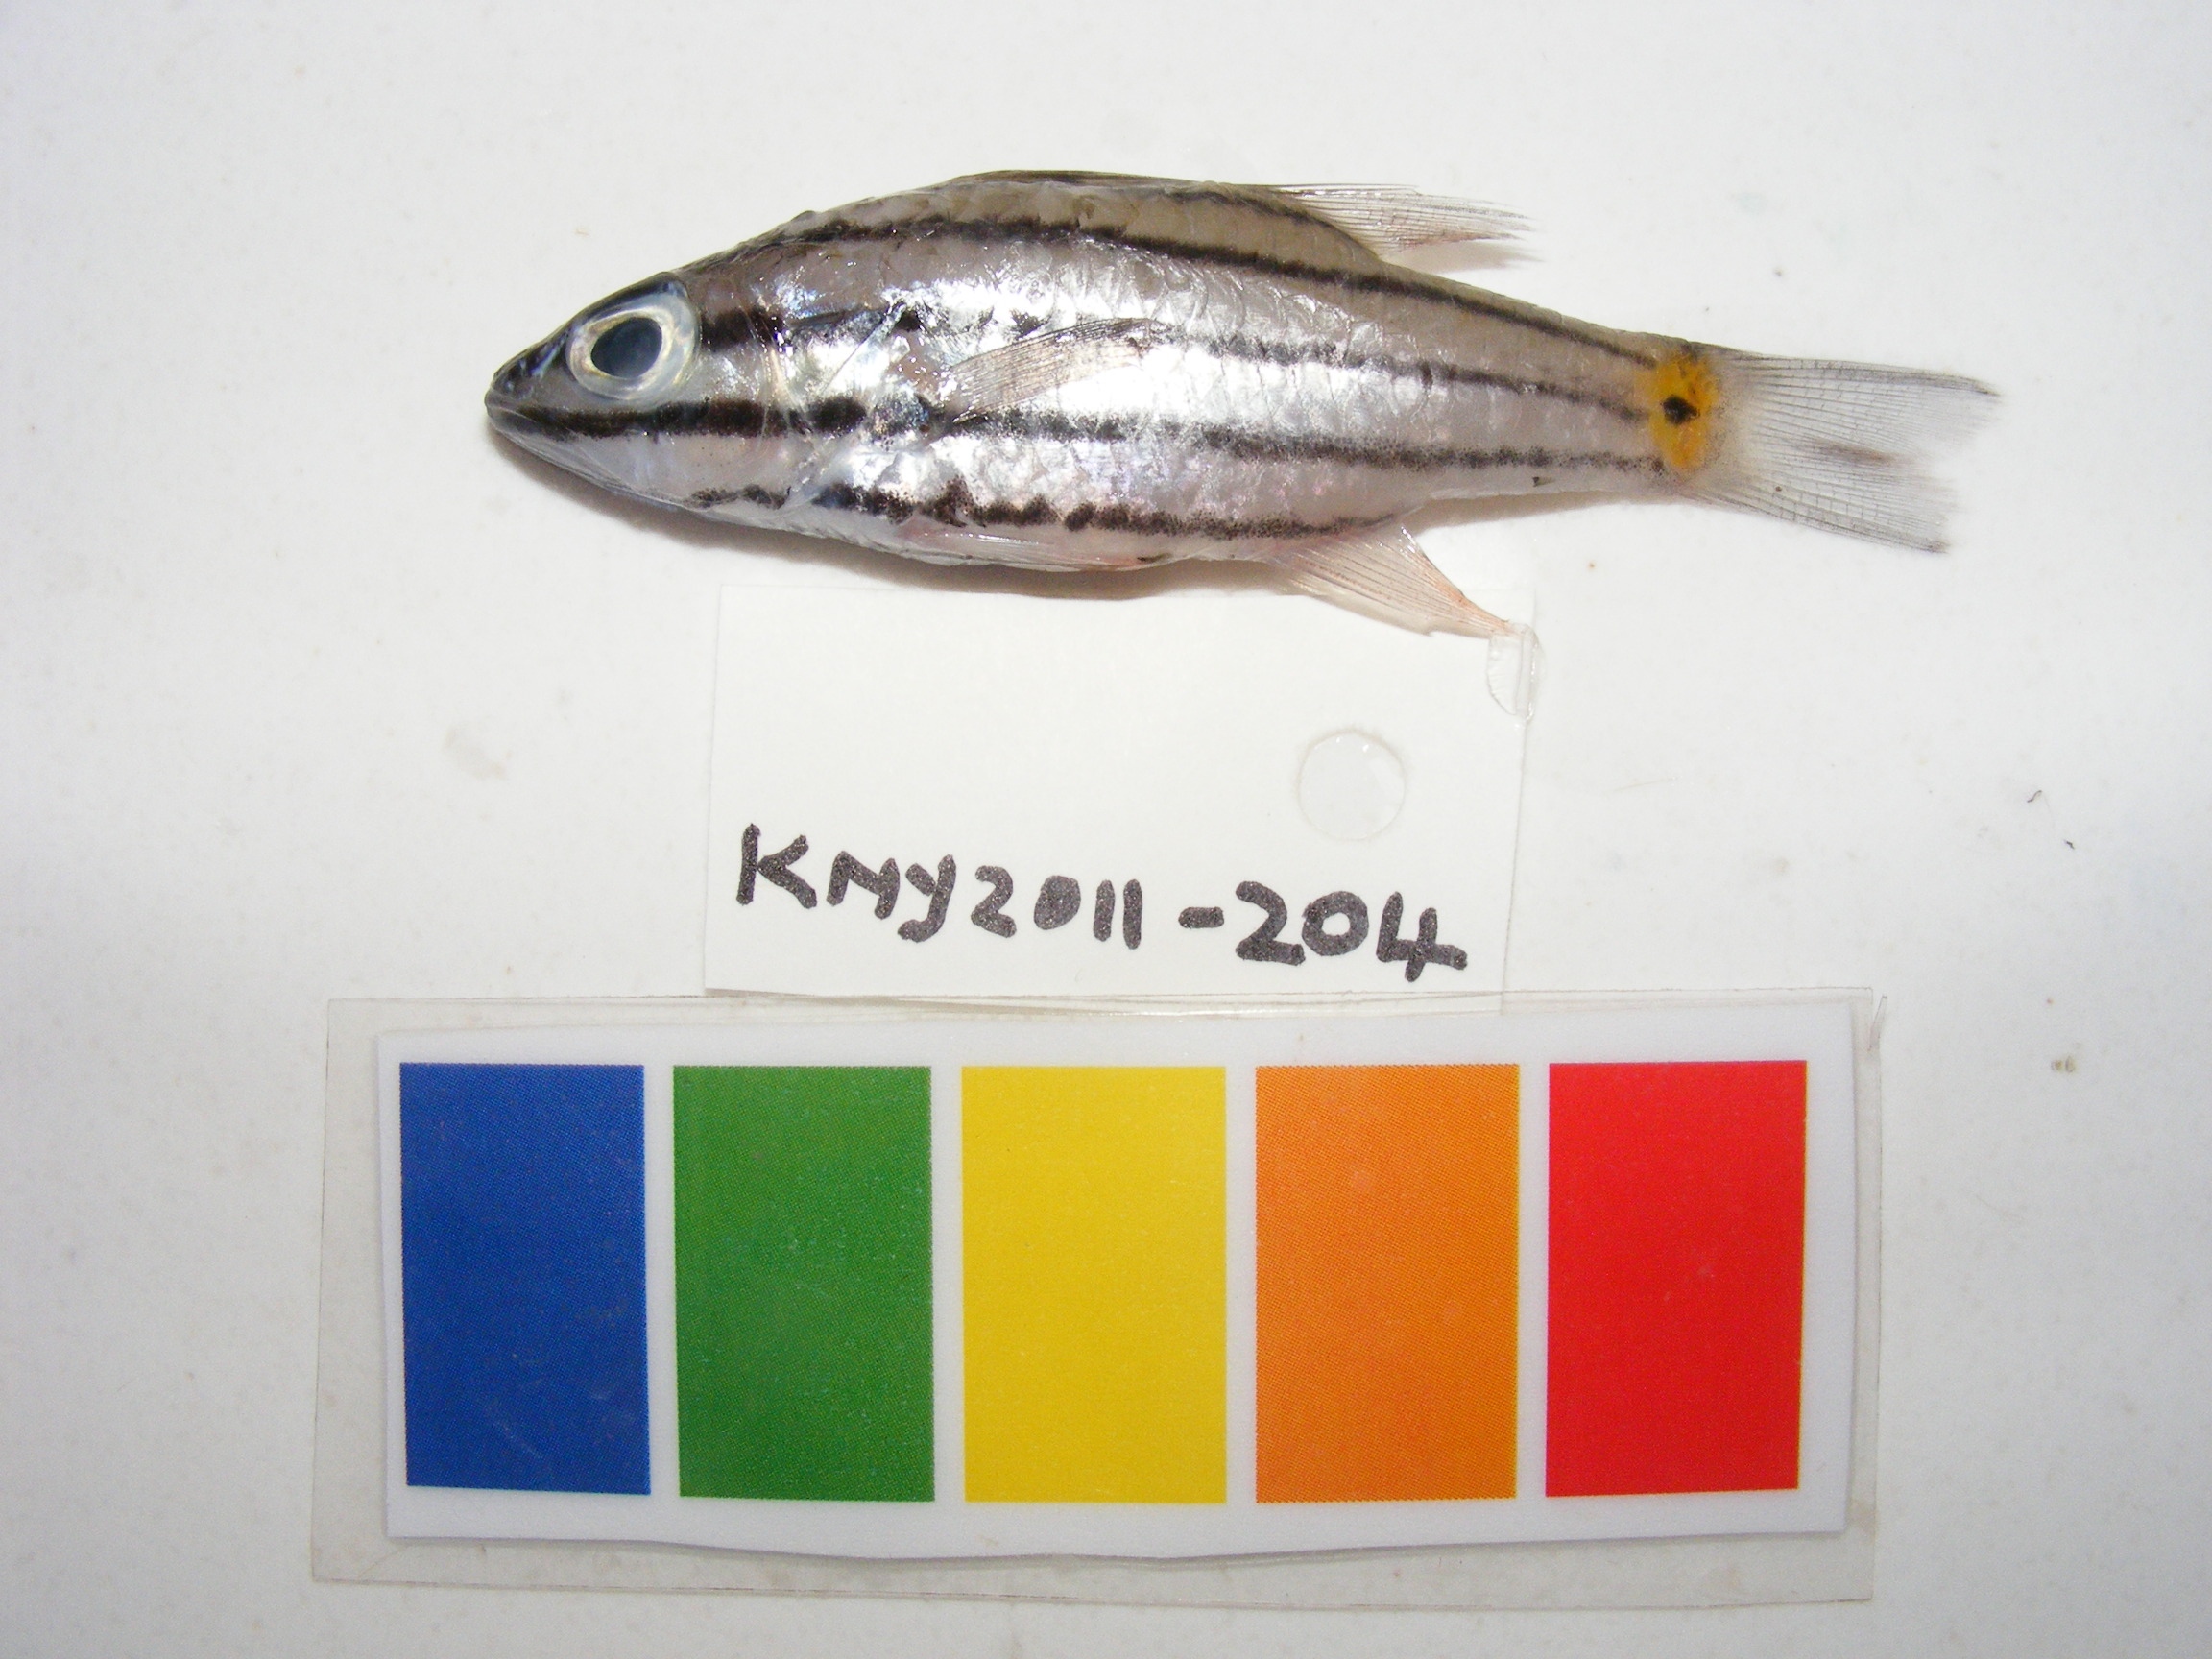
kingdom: Animalia
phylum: Chordata
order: Perciformes
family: Apogonidae
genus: Cheilodipterus
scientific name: Cheilodipterus quinquelineatus
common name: Five-lined cardinalfish
